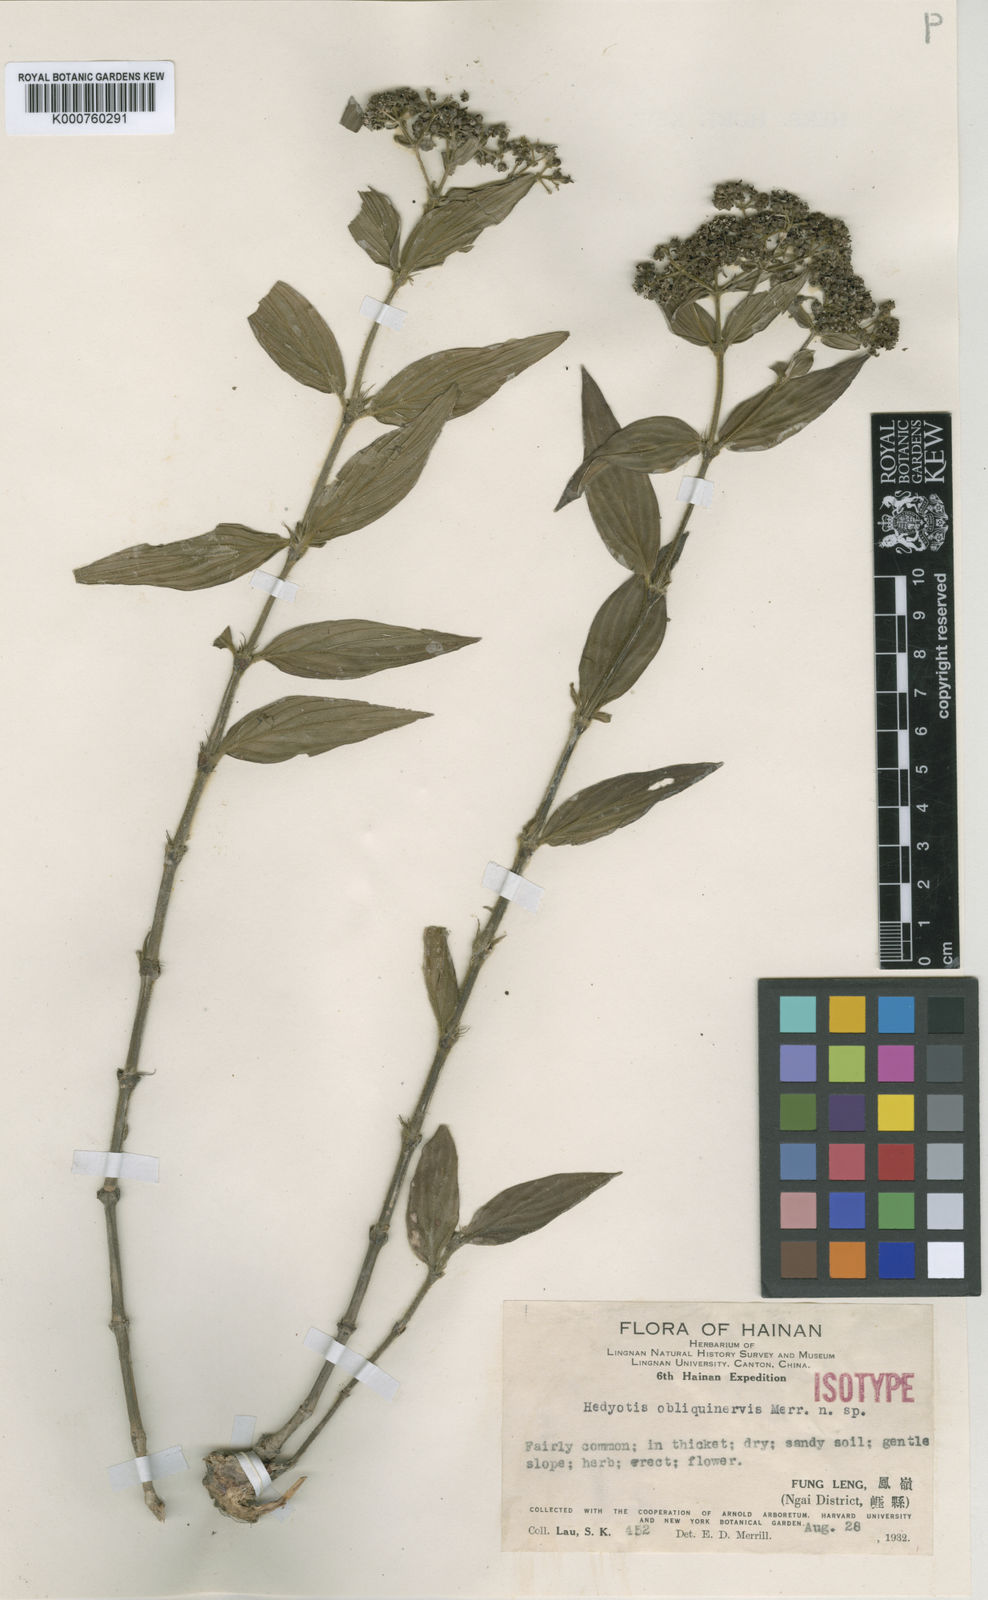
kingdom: Plantae
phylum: Tracheophyta
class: Magnoliopsida
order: Gentianales
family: Rubiaceae
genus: Dimetia
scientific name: Dimetia obliquinervis
